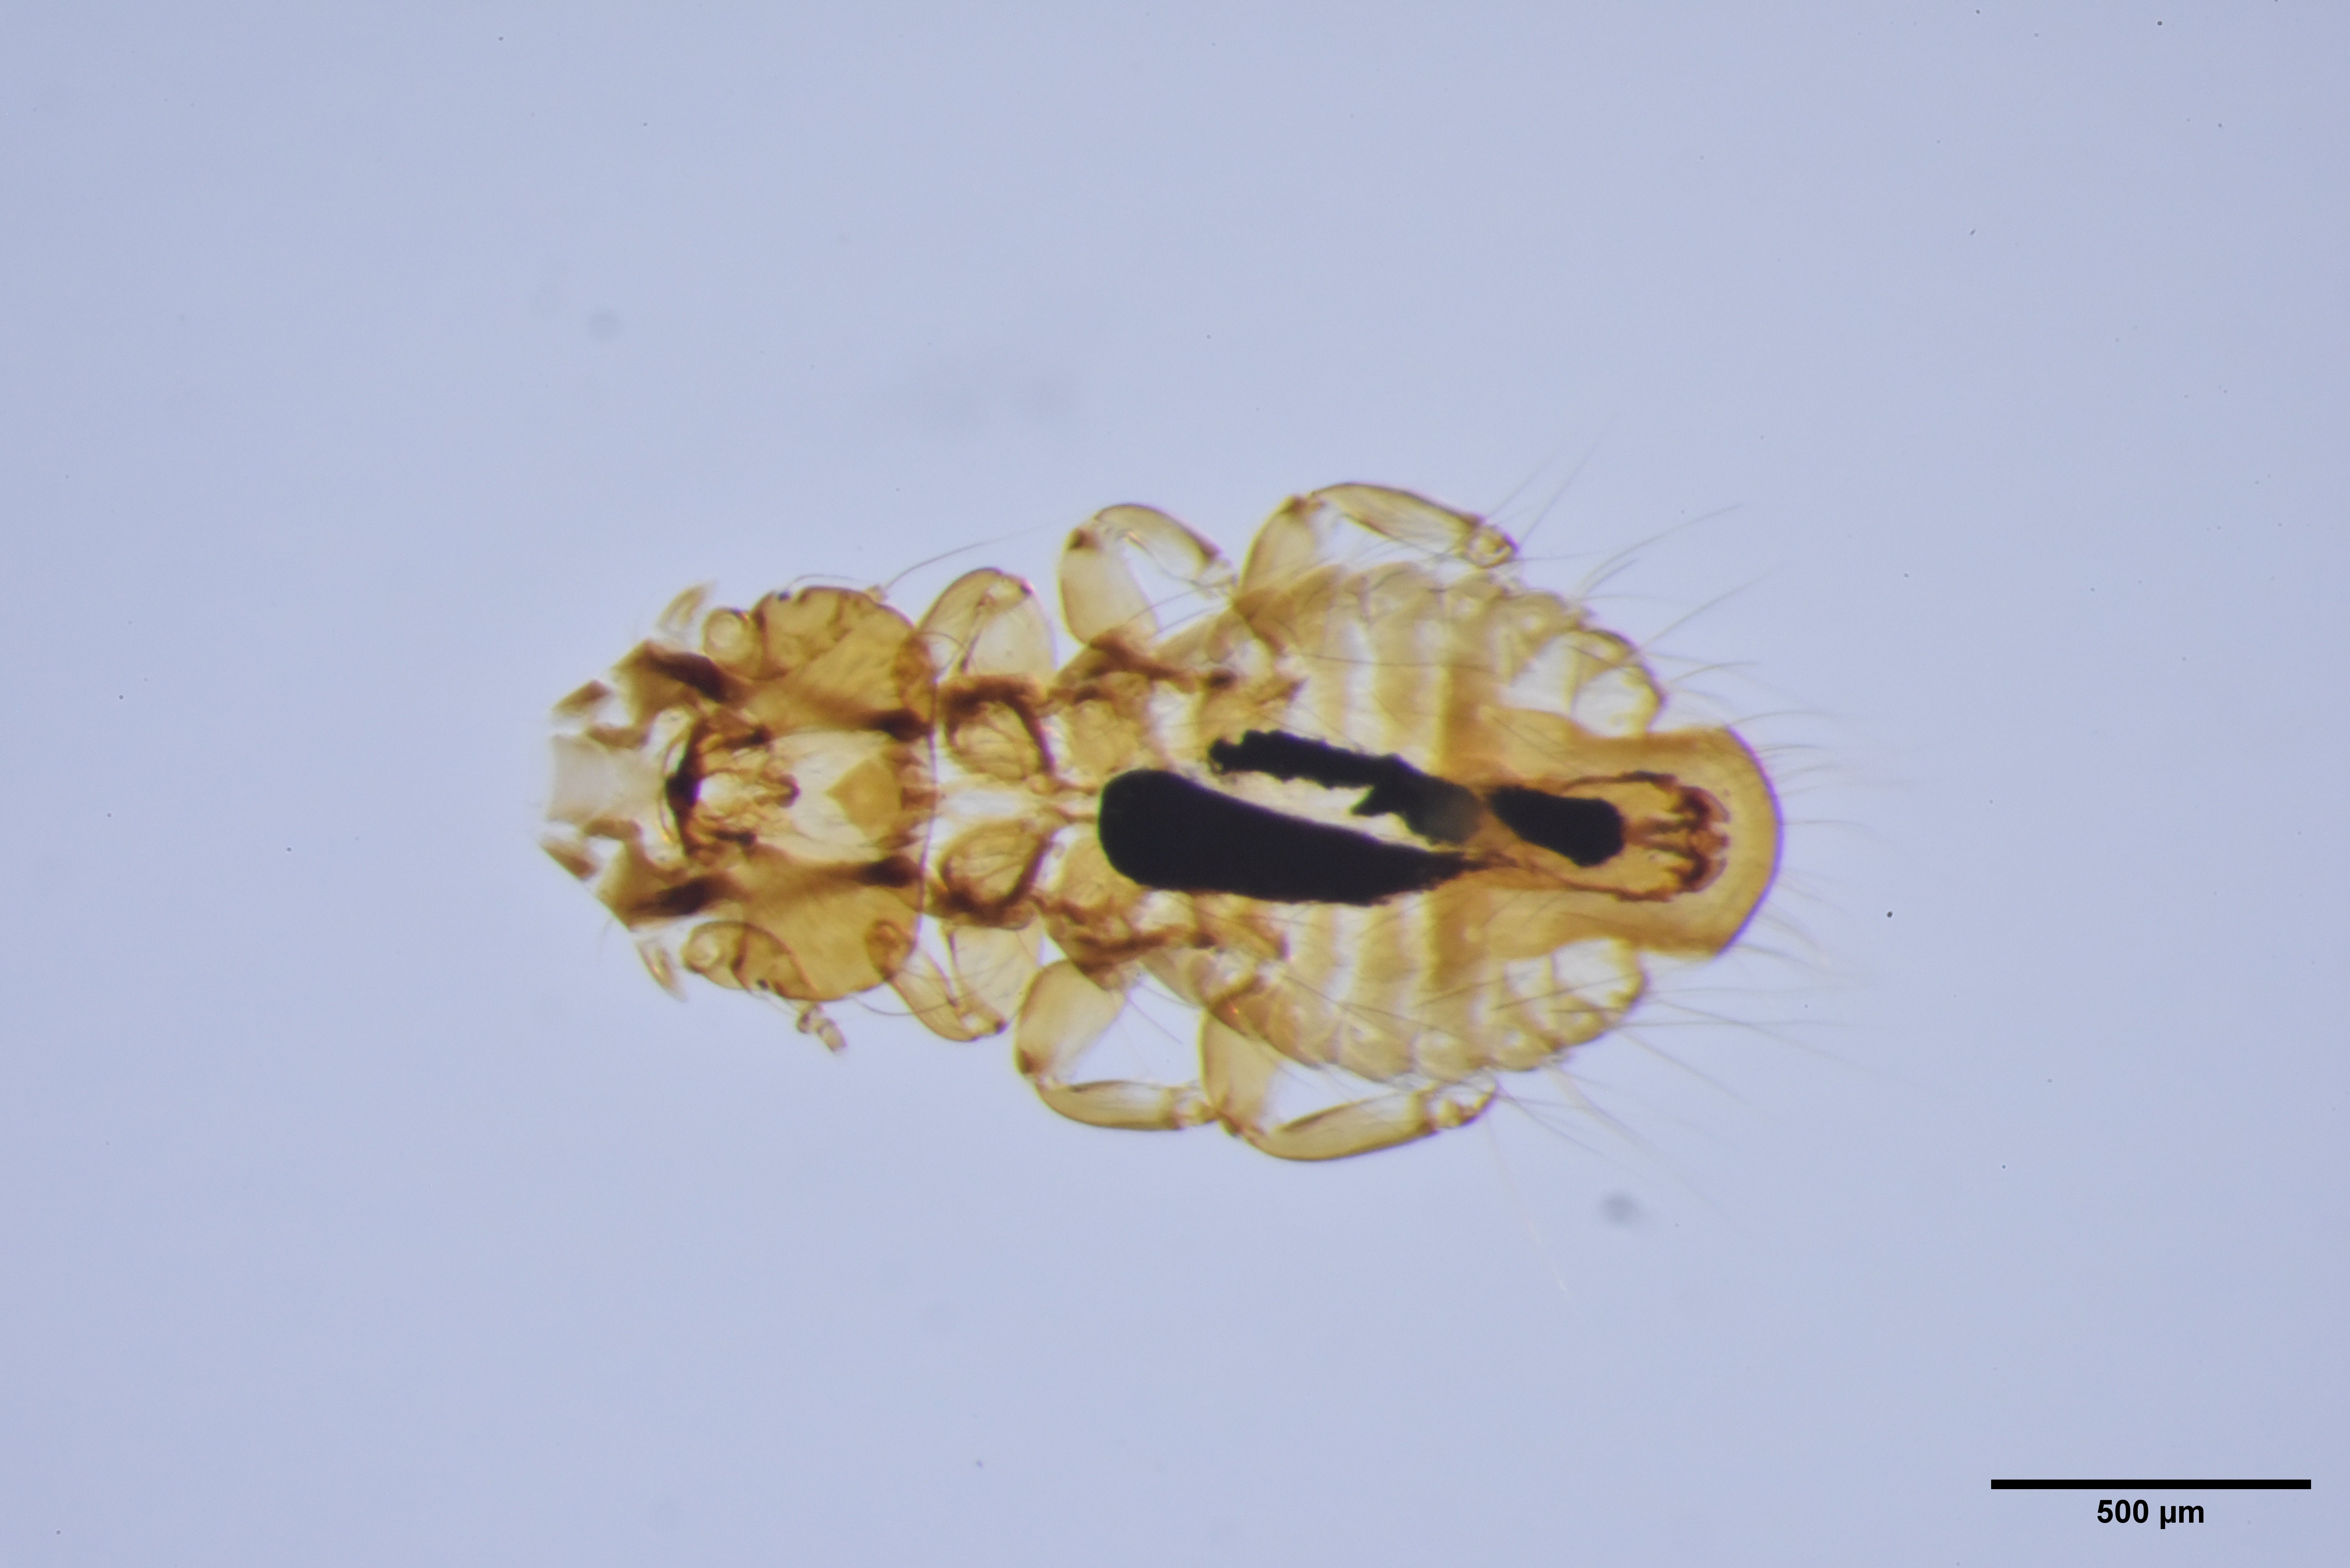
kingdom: Animalia
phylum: Arthropoda
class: Insecta
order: Psocodea
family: Philopteridae
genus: Strigiphilus
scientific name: Strigiphilus
